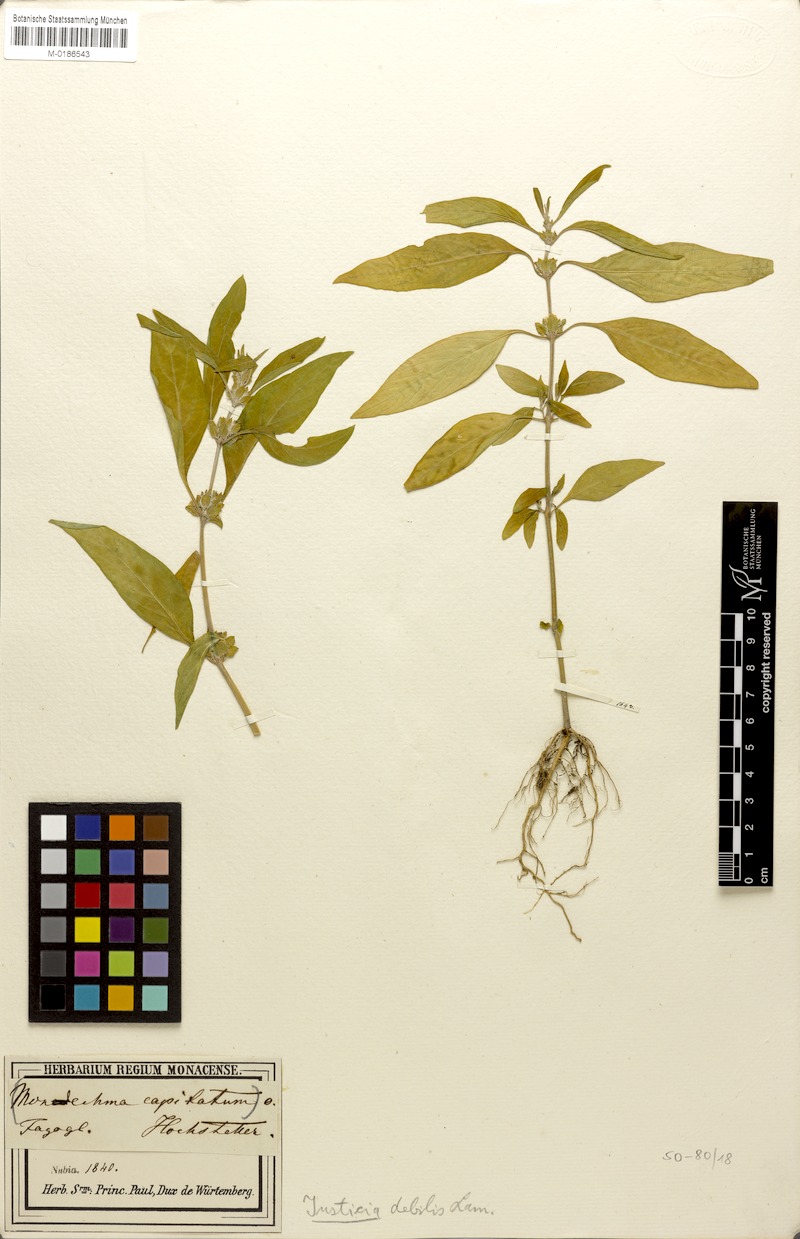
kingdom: Plantae
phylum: Tracheophyta
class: Magnoliopsida
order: Lamiales
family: Acanthaceae
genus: Monechma
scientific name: Monechma debile
